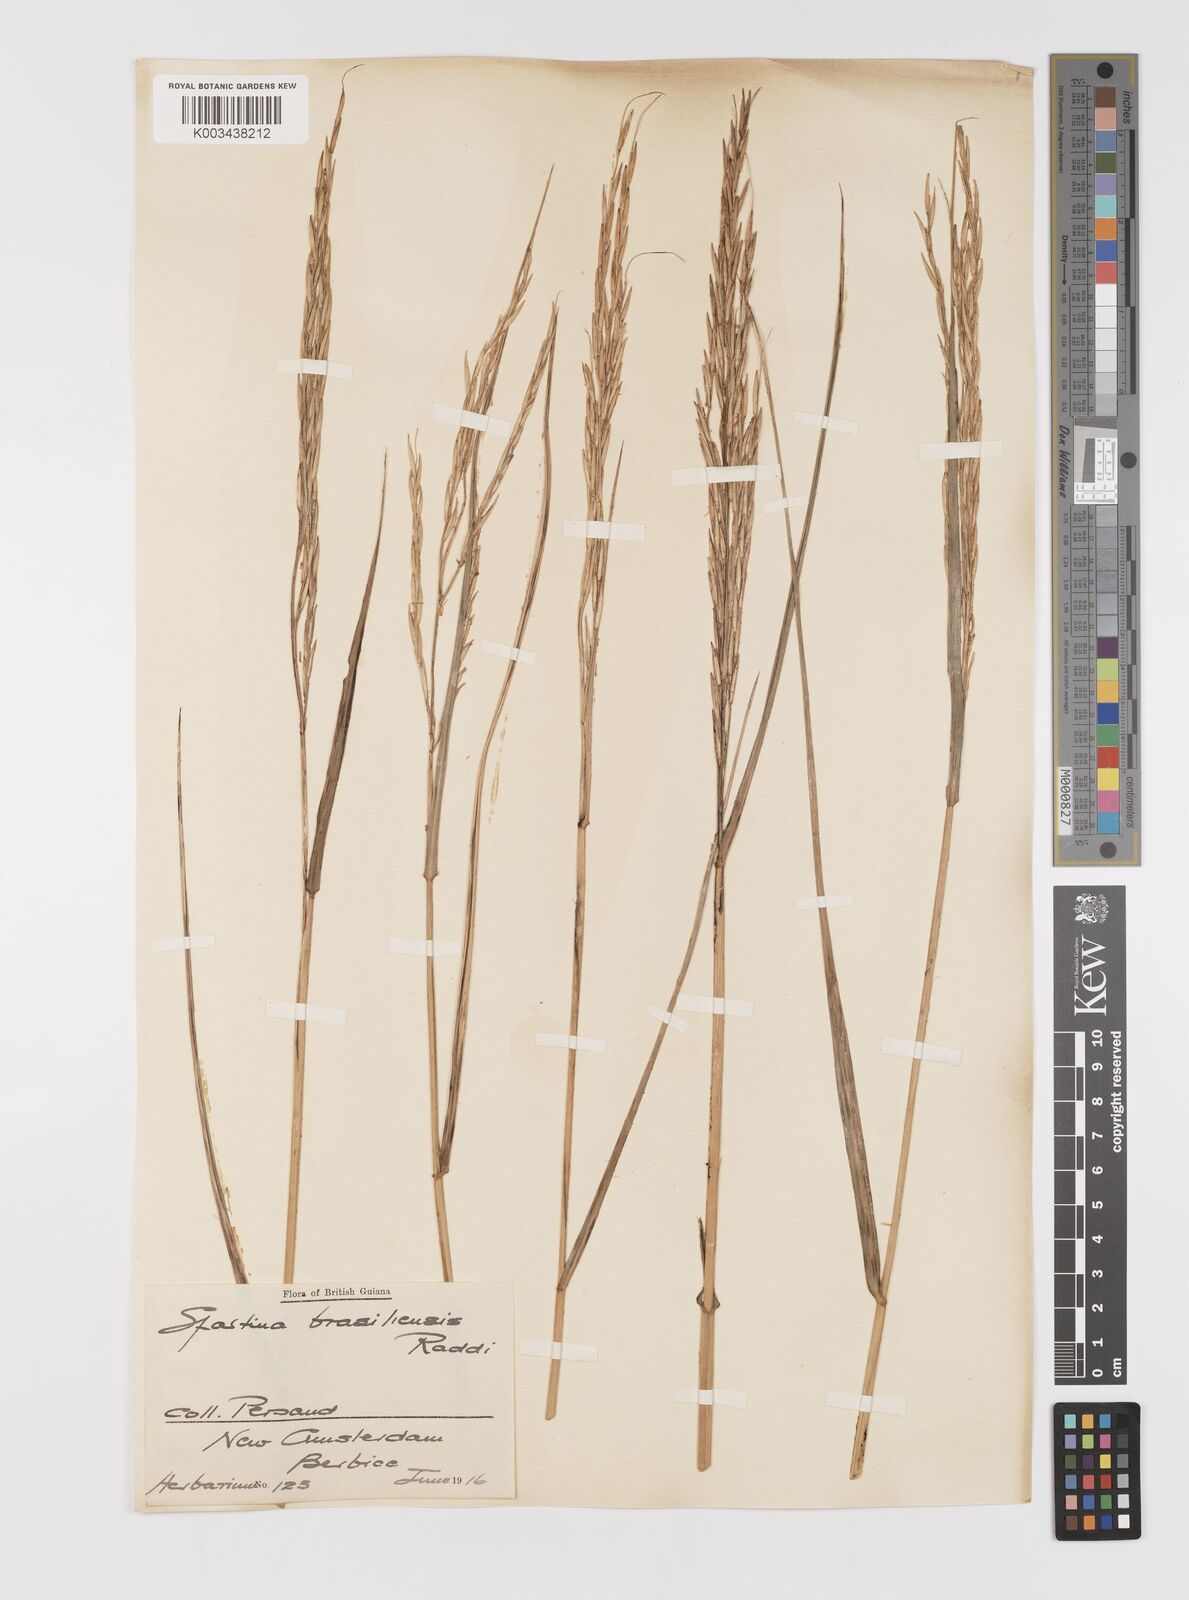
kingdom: Plantae
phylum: Tracheophyta
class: Liliopsida
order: Poales
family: Poaceae
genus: Sporobolus
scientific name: Sporobolus alterniflorus
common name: Atlantic cordgrass
